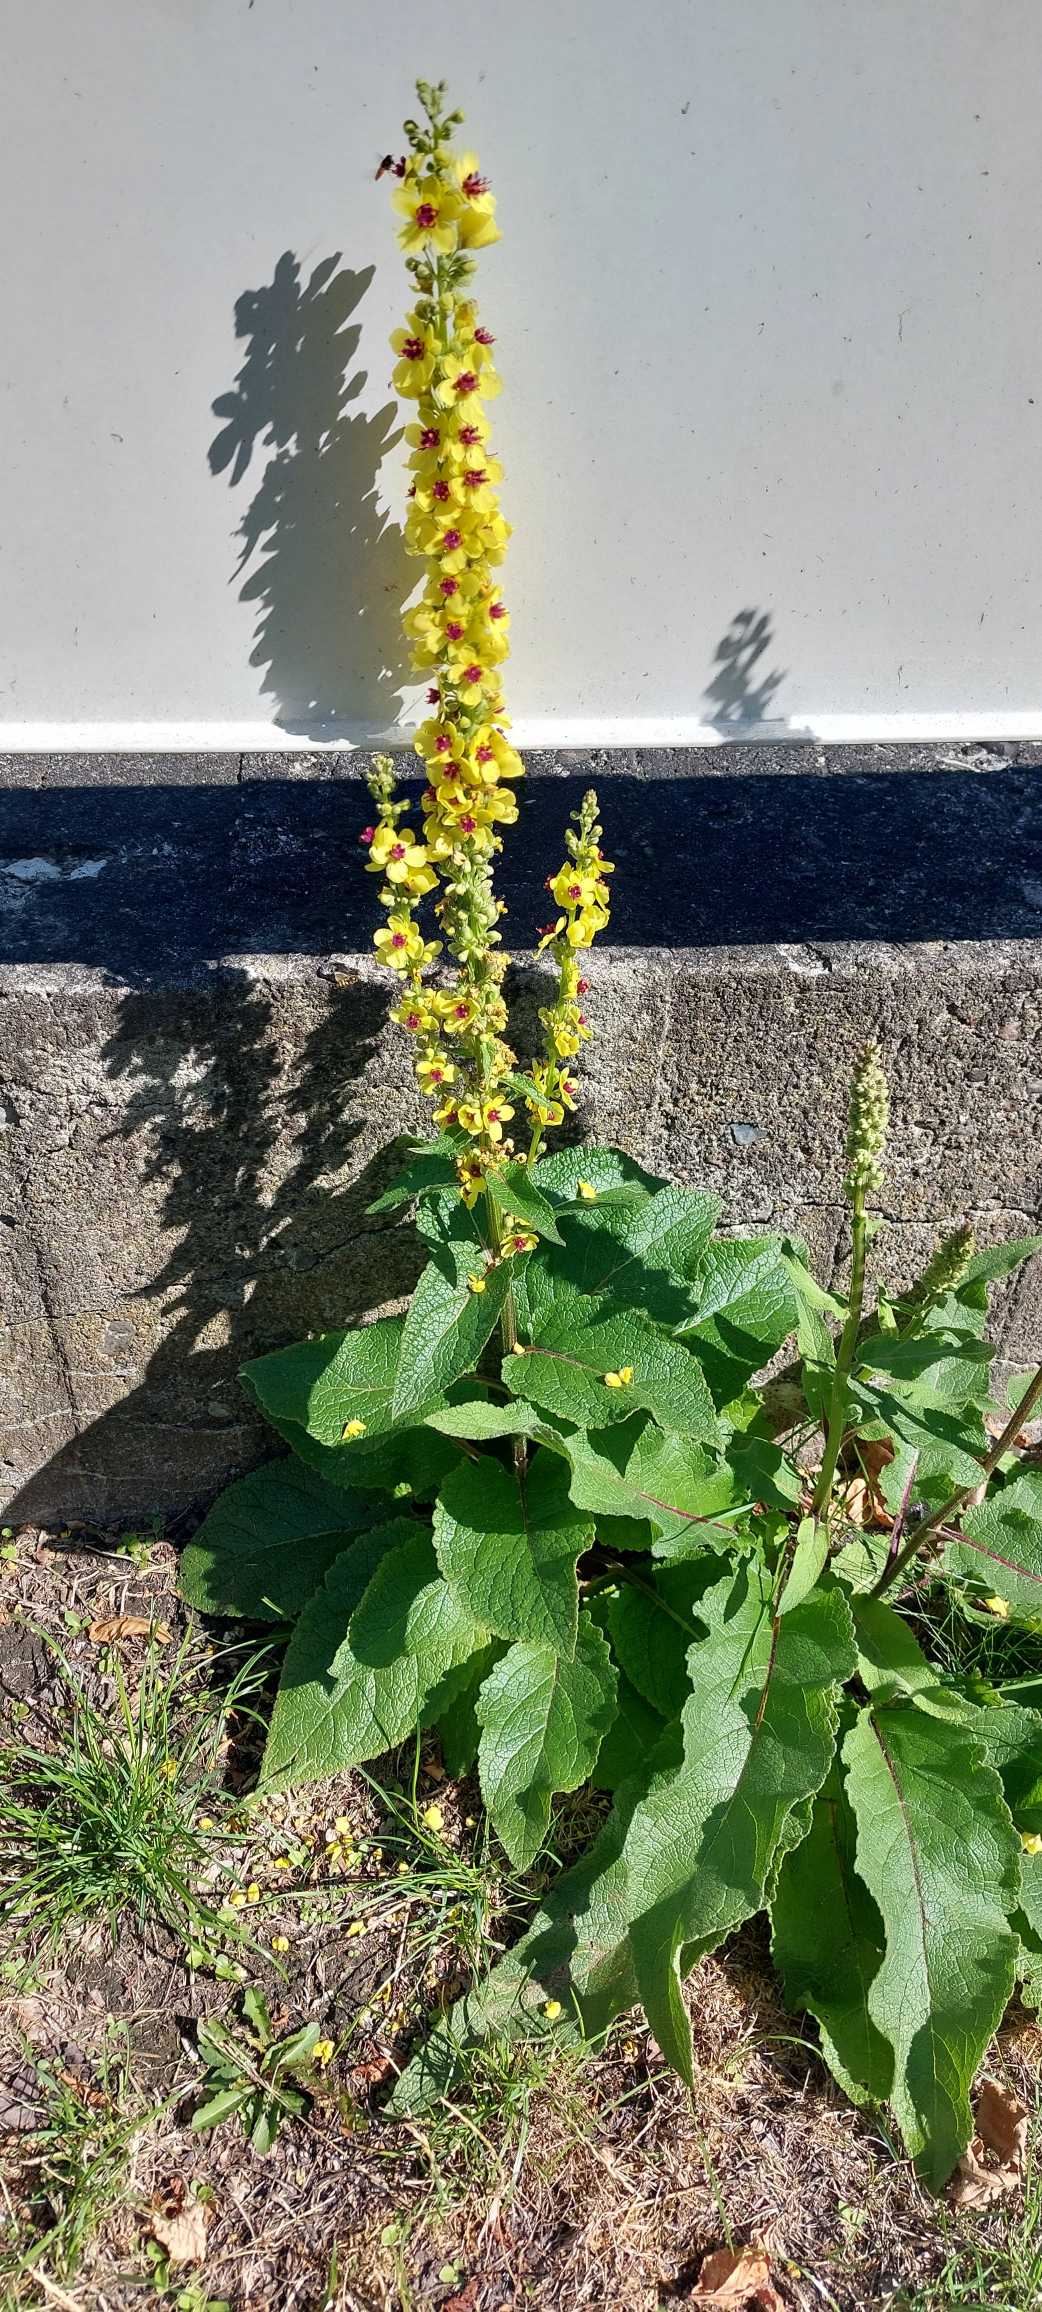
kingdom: Plantae
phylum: Tracheophyta
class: Magnoliopsida
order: Lamiales
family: Scrophulariaceae
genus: Verbascum
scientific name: Verbascum nigrum
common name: Mørk kongelys
